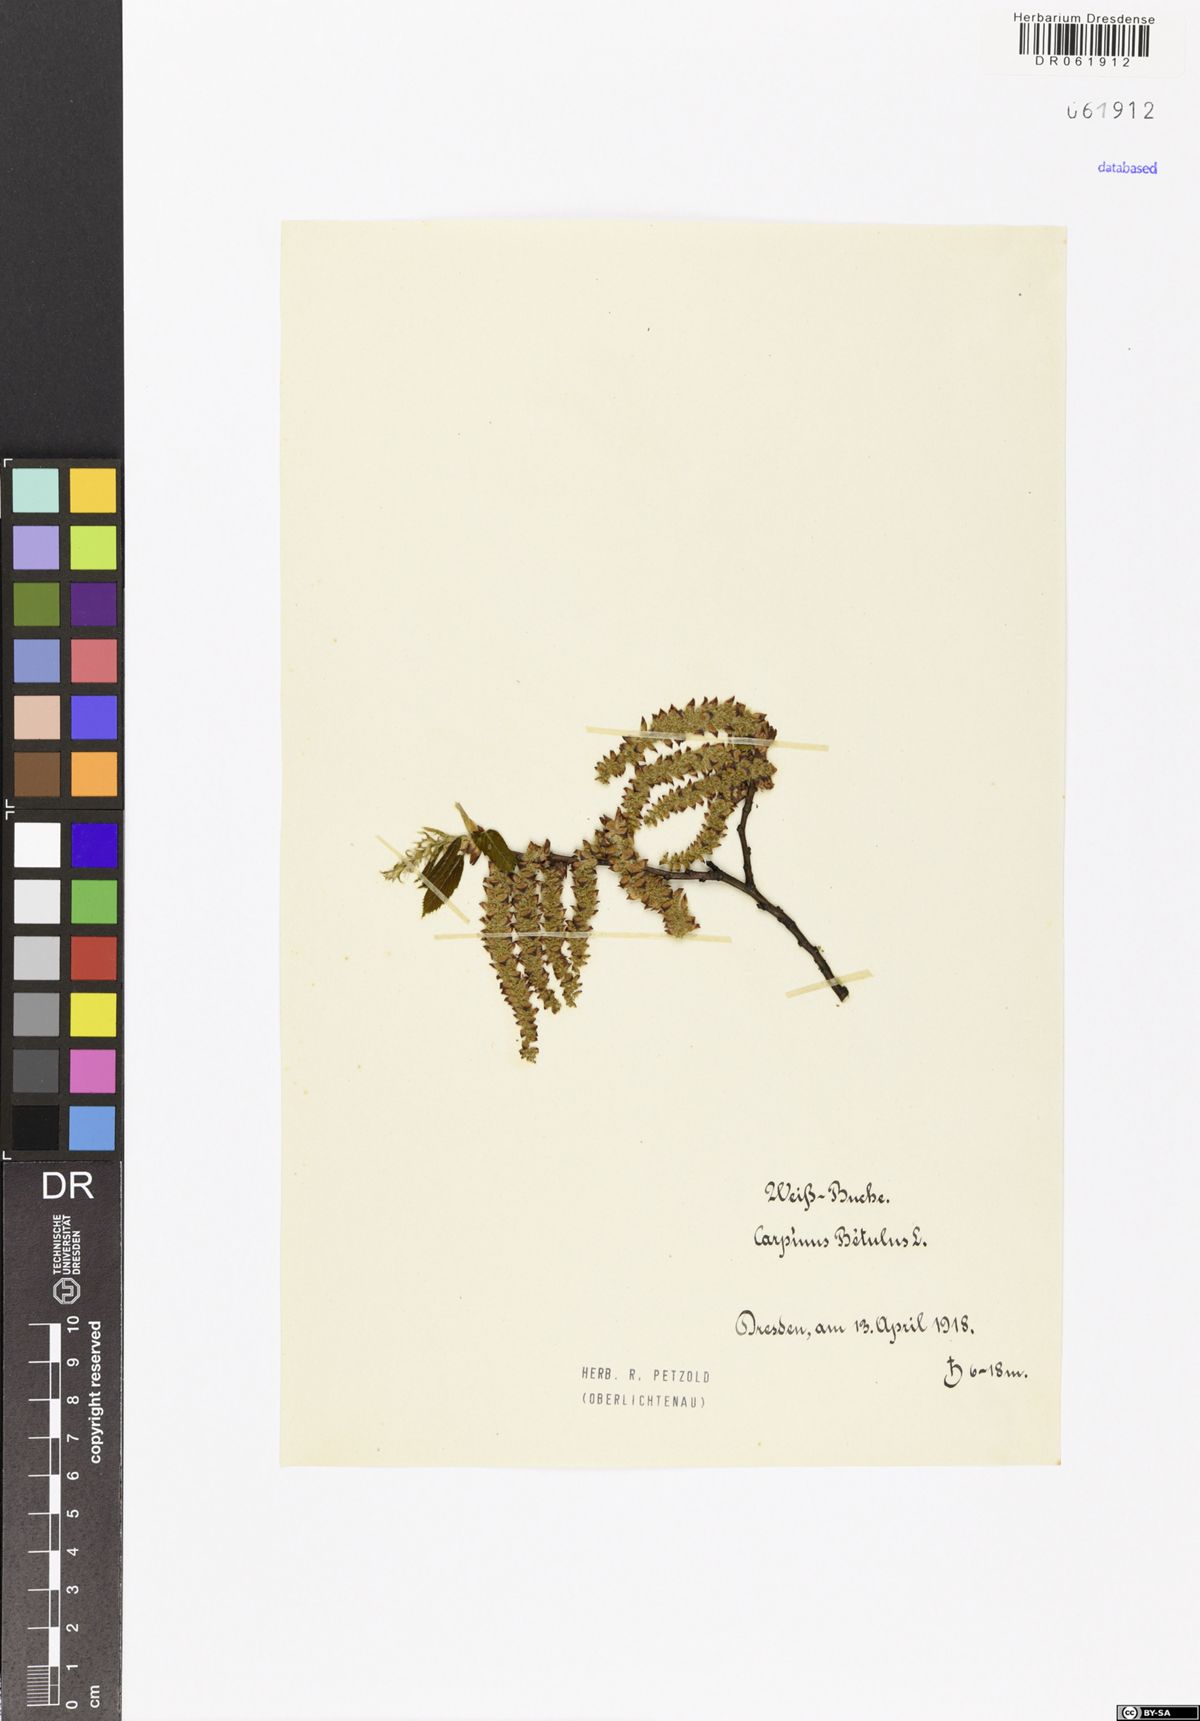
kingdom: Plantae
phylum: Tracheophyta
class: Magnoliopsida
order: Fagales
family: Betulaceae
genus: Carpinus
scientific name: Carpinus betulus
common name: Hornbeam
